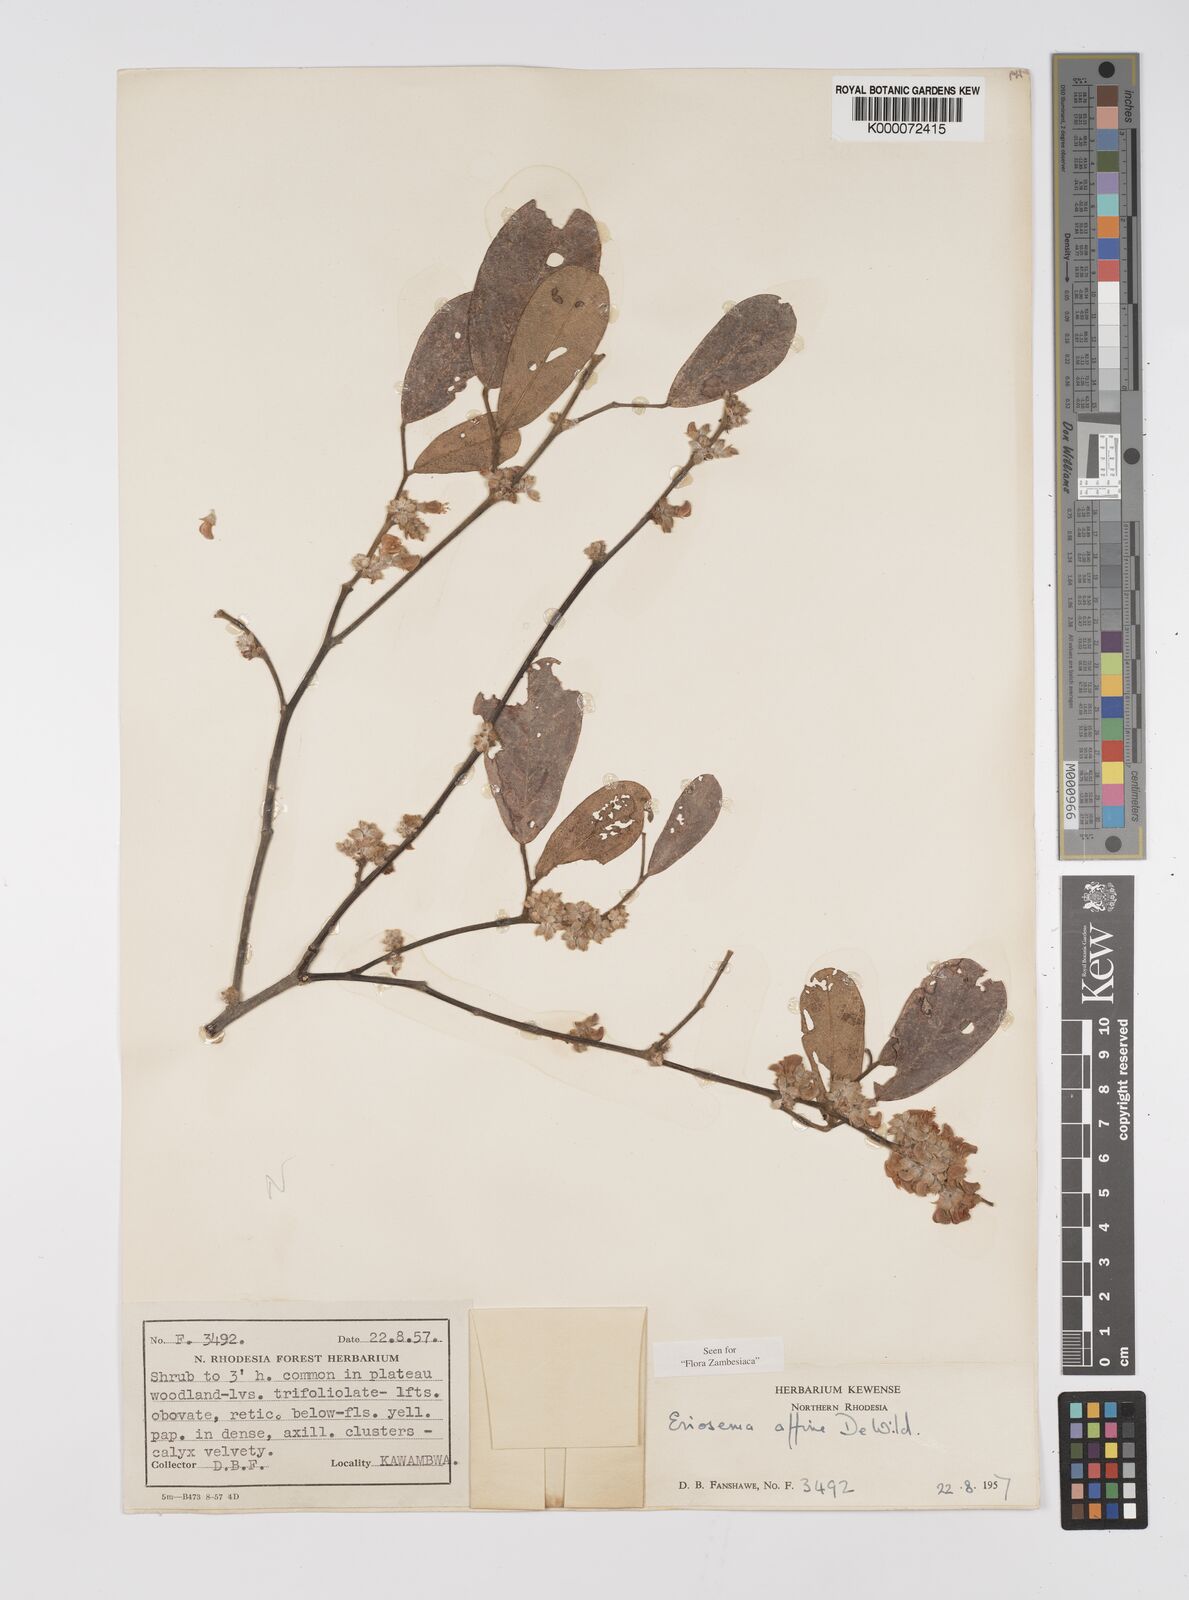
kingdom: Plantae
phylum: Tracheophyta
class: Magnoliopsida
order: Fabales
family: Fabaceae
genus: Eriosema
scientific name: Eriosema affine
